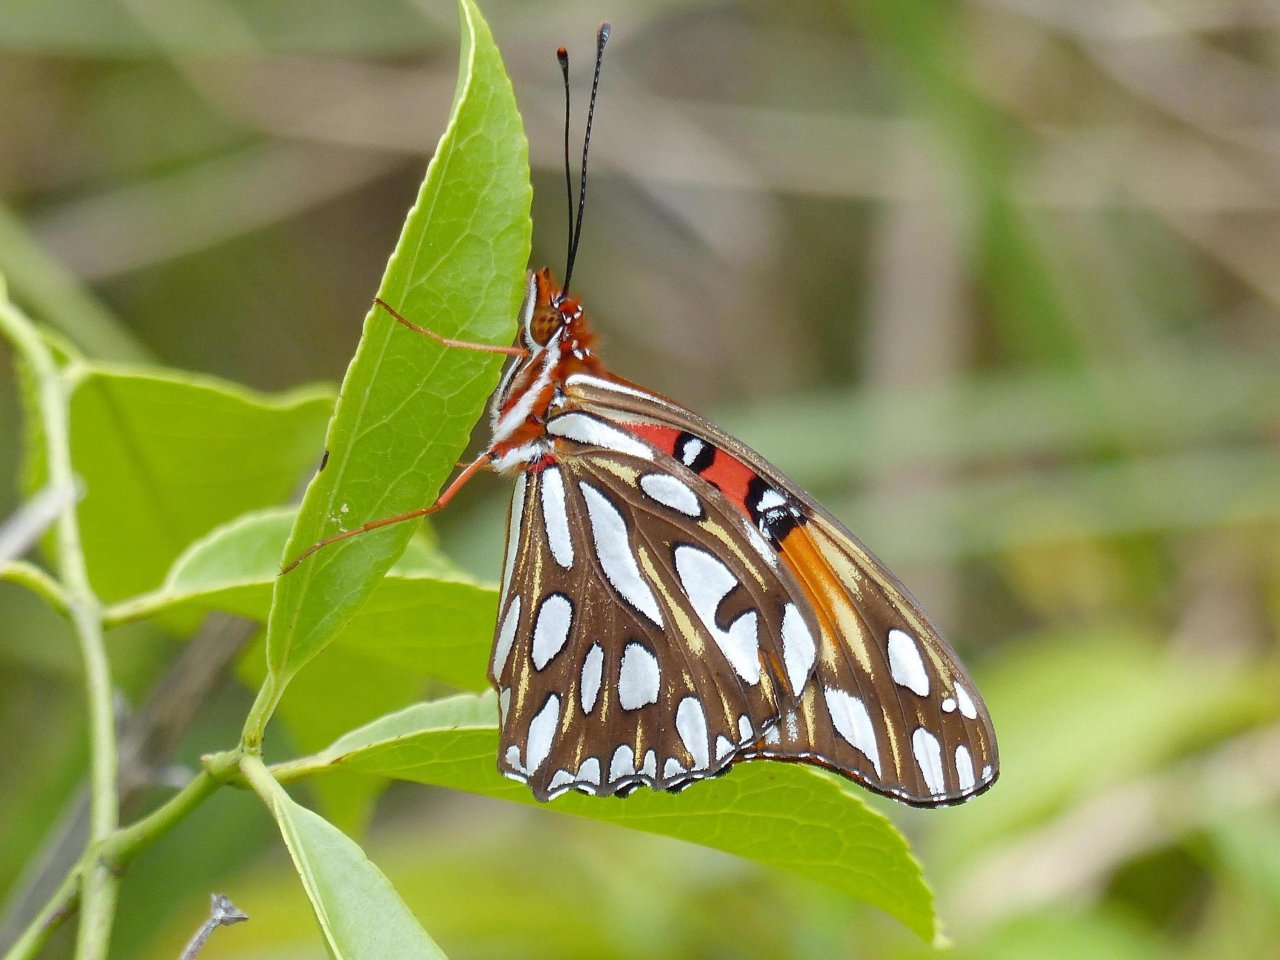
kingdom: Animalia
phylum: Arthropoda
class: Insecta
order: Lepidoptera
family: Nymphalidae
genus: Dione
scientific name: Dione vanillae
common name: Gulf Fritillary
